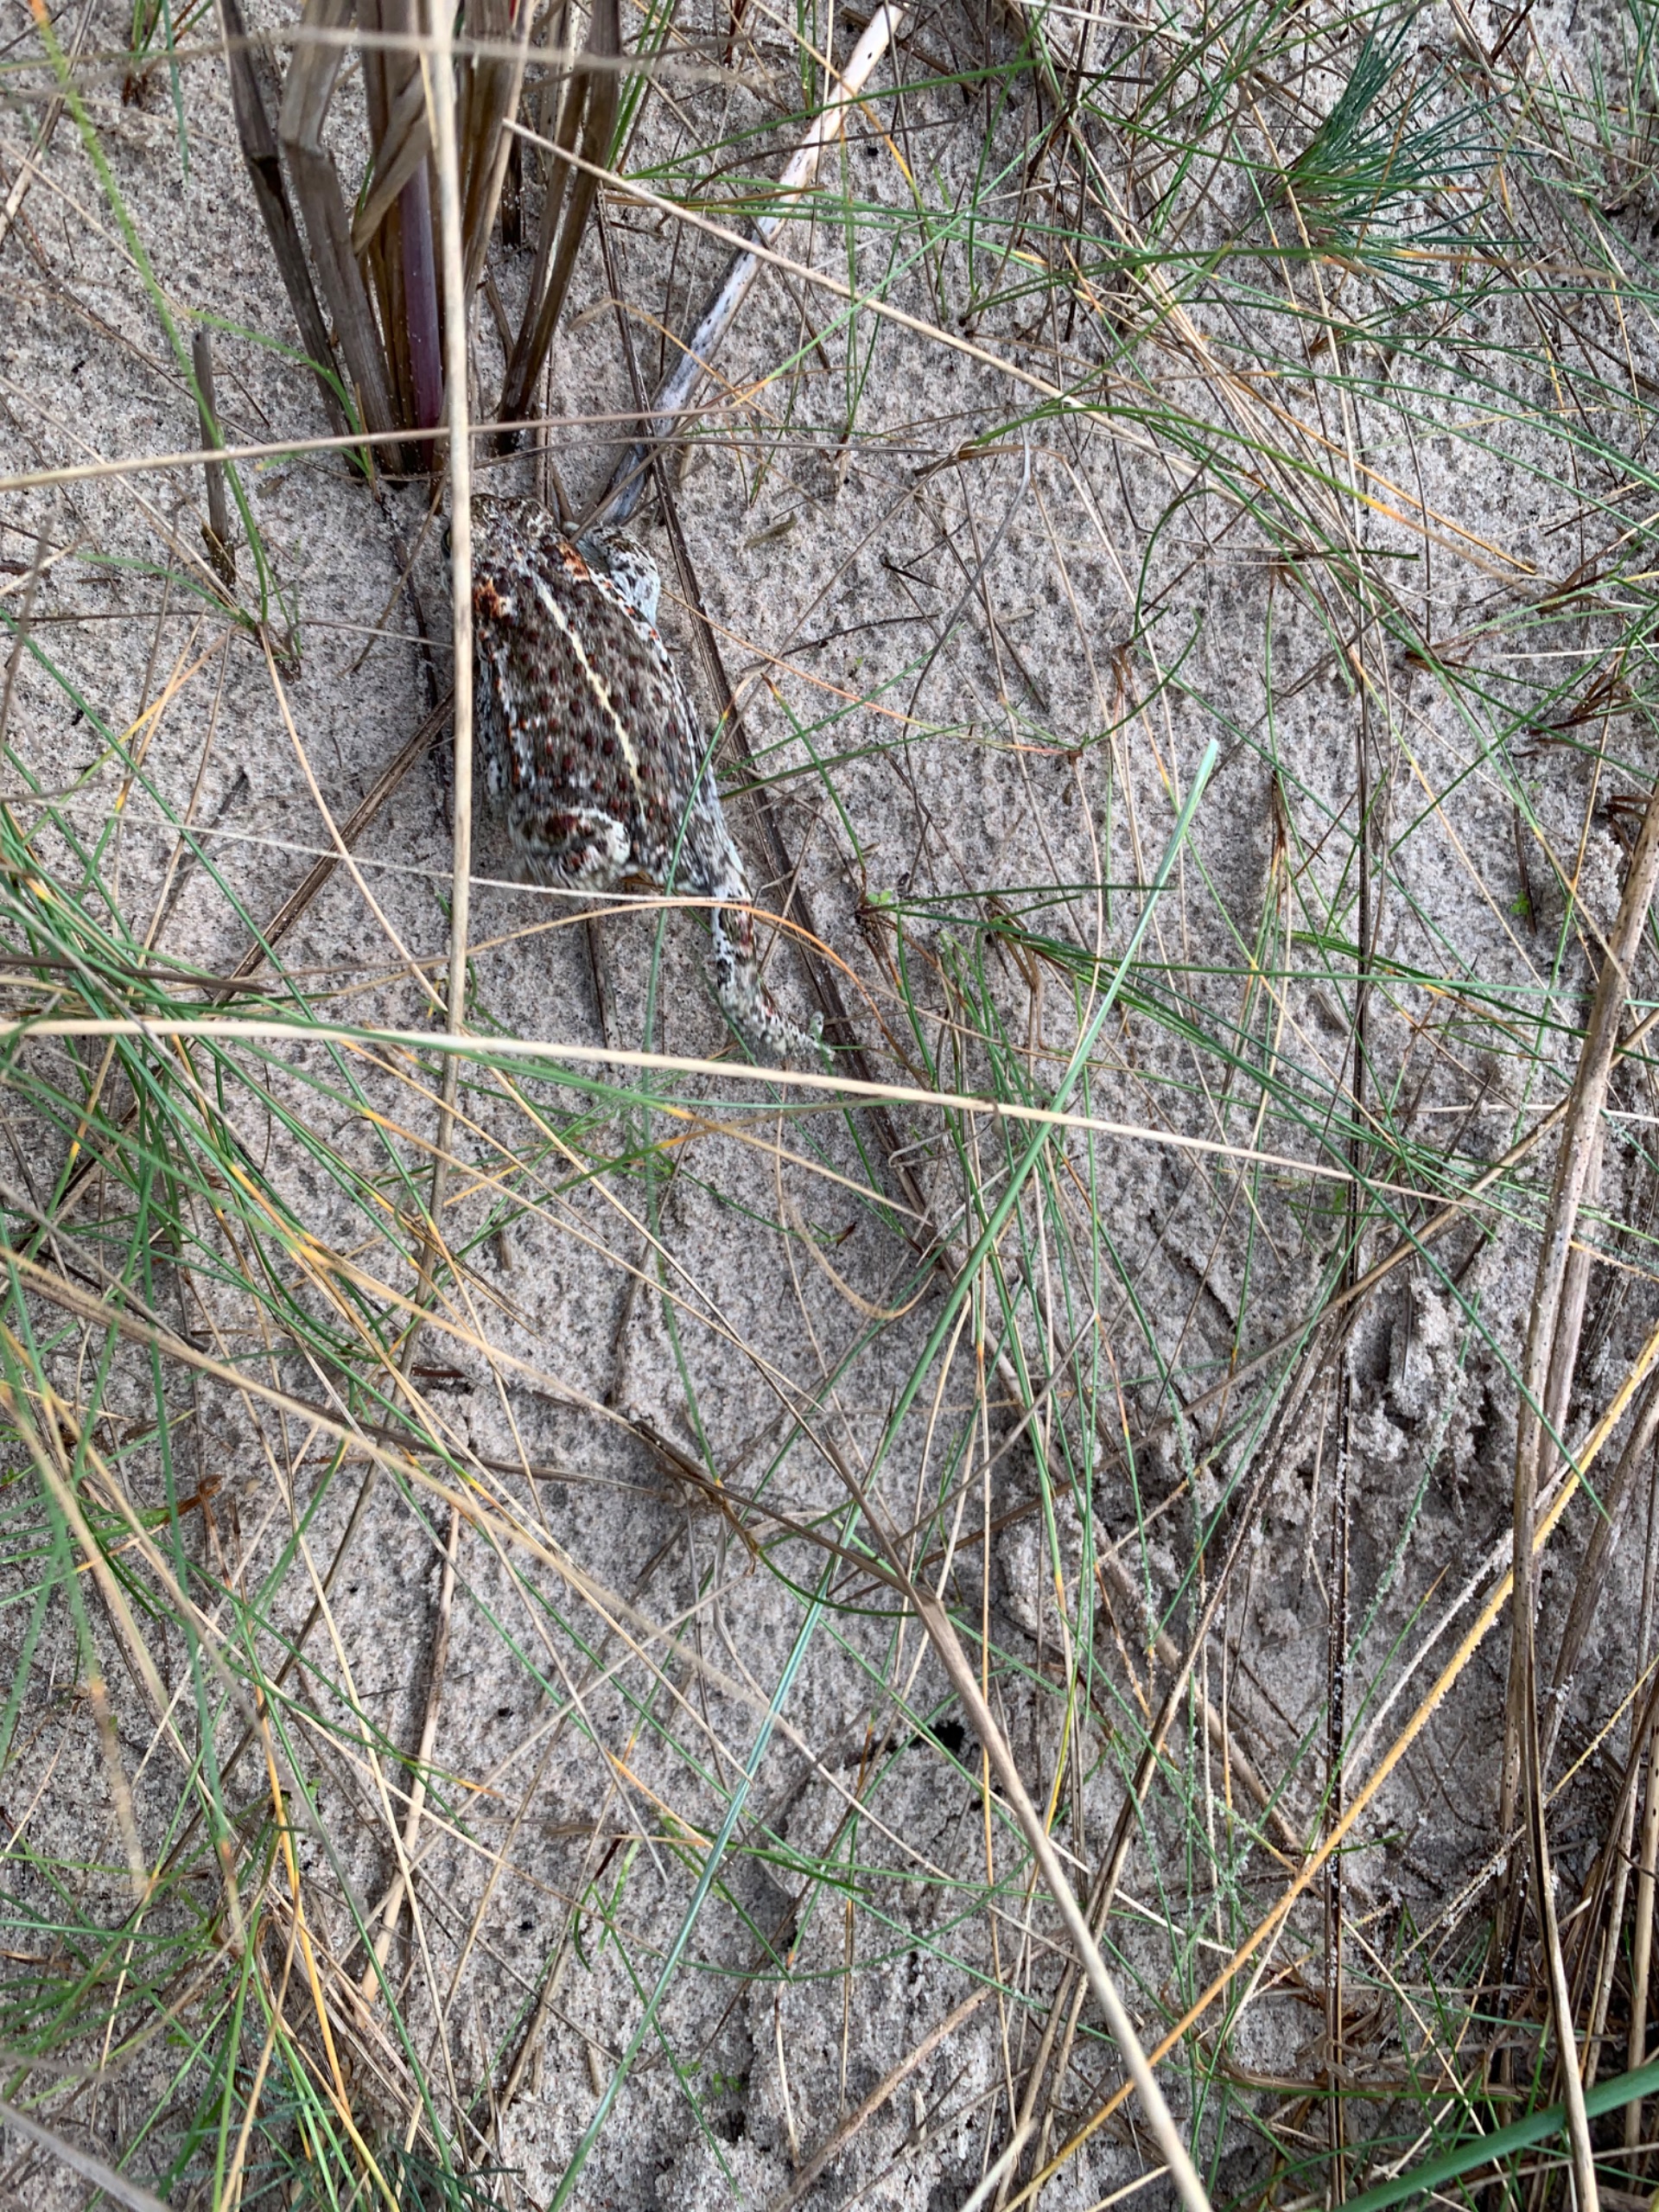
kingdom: Animalia
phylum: Chordata
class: Amphibia
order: Anura
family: Bufonidae
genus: Epidalea
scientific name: Epidalea calamita
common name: Strandtudse
